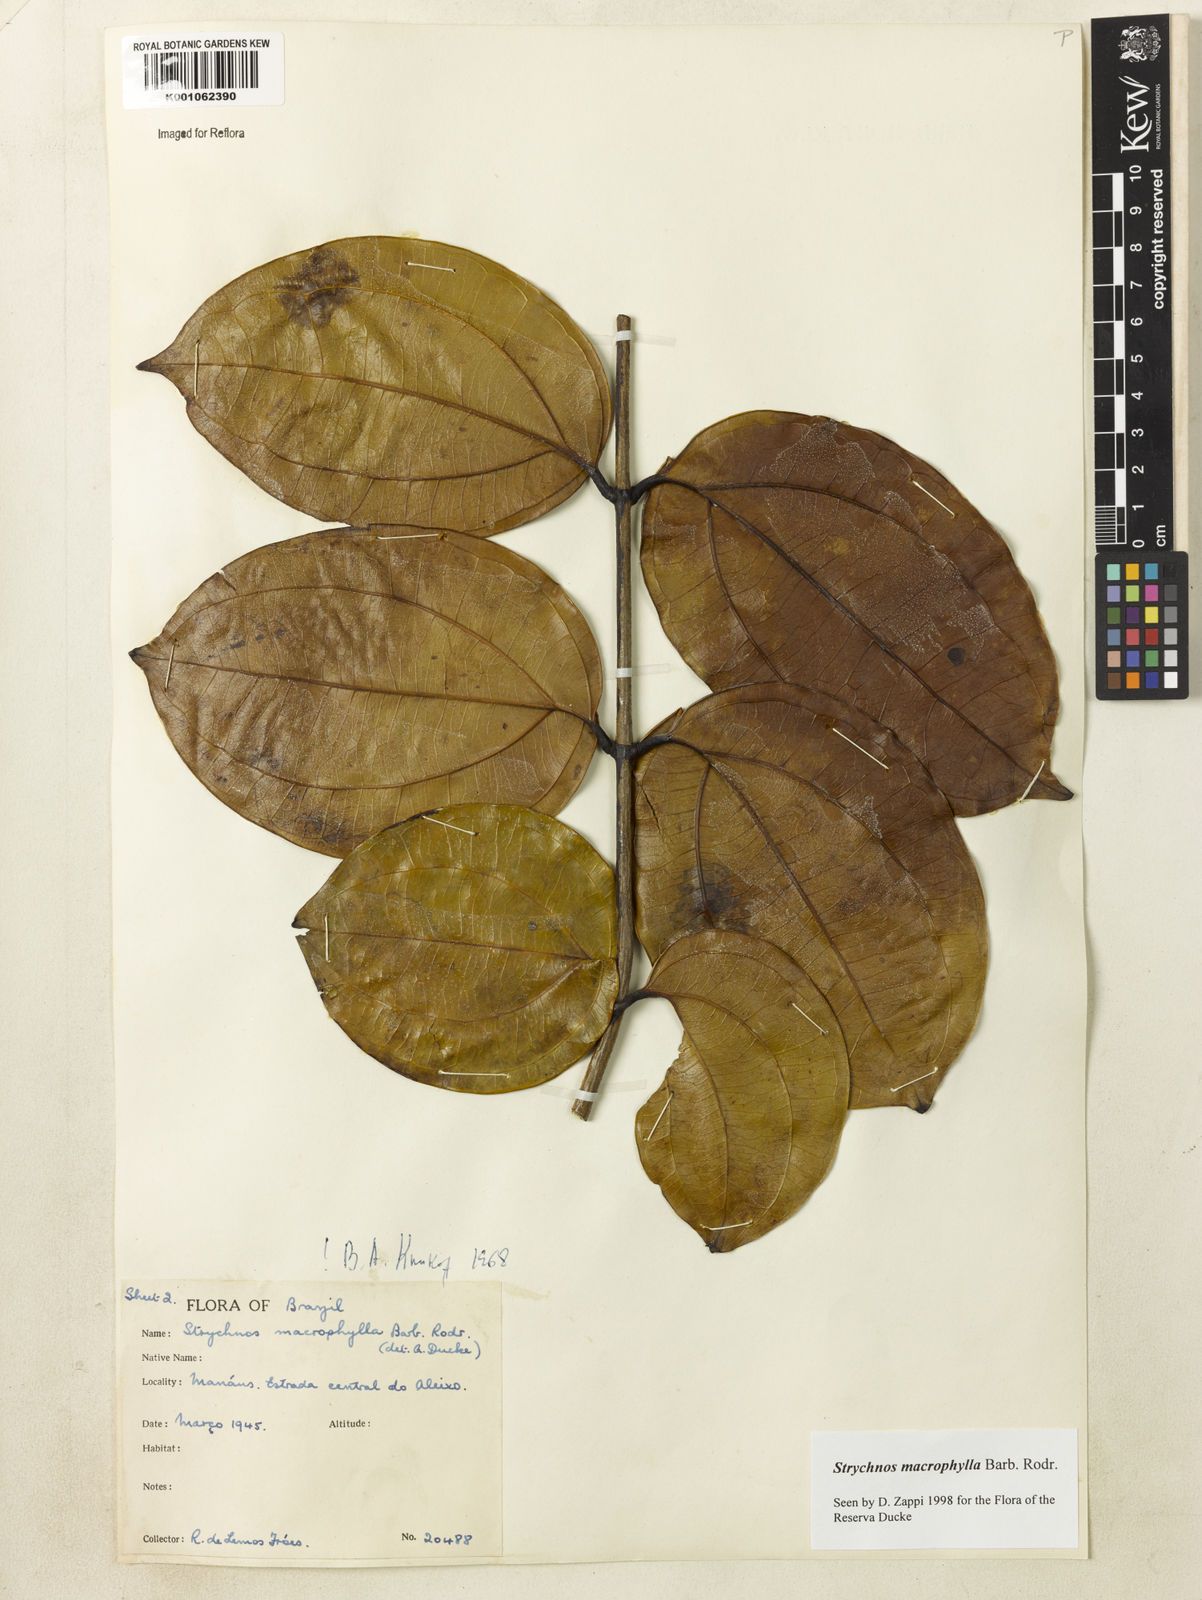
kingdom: Plantae
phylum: Tracheophyta
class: Magnoliopsida
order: Gentianales
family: Loganiaceae
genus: Strychnos
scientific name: Strychnos
